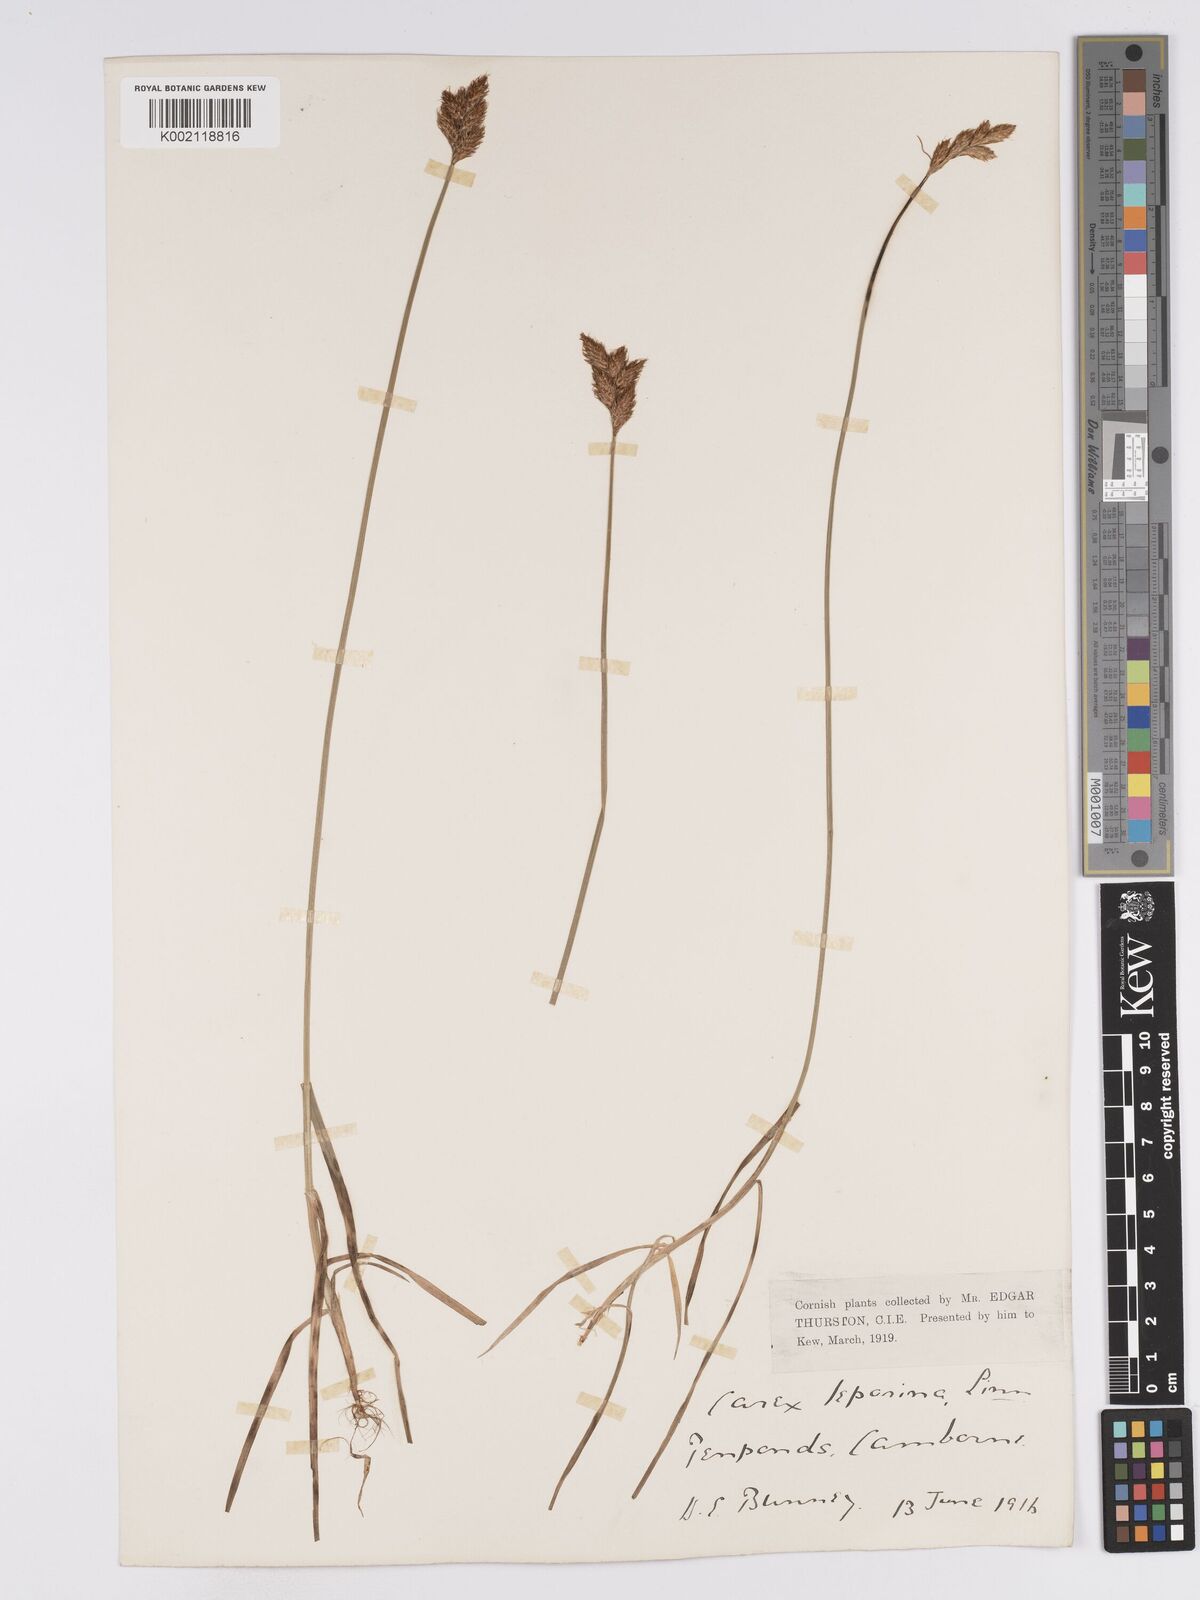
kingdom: Plantae
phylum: Tracheophyta
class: Liliopsida
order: Poales
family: Cyperaceae
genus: Carex
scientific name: Carex leporina
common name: Oval sedge
